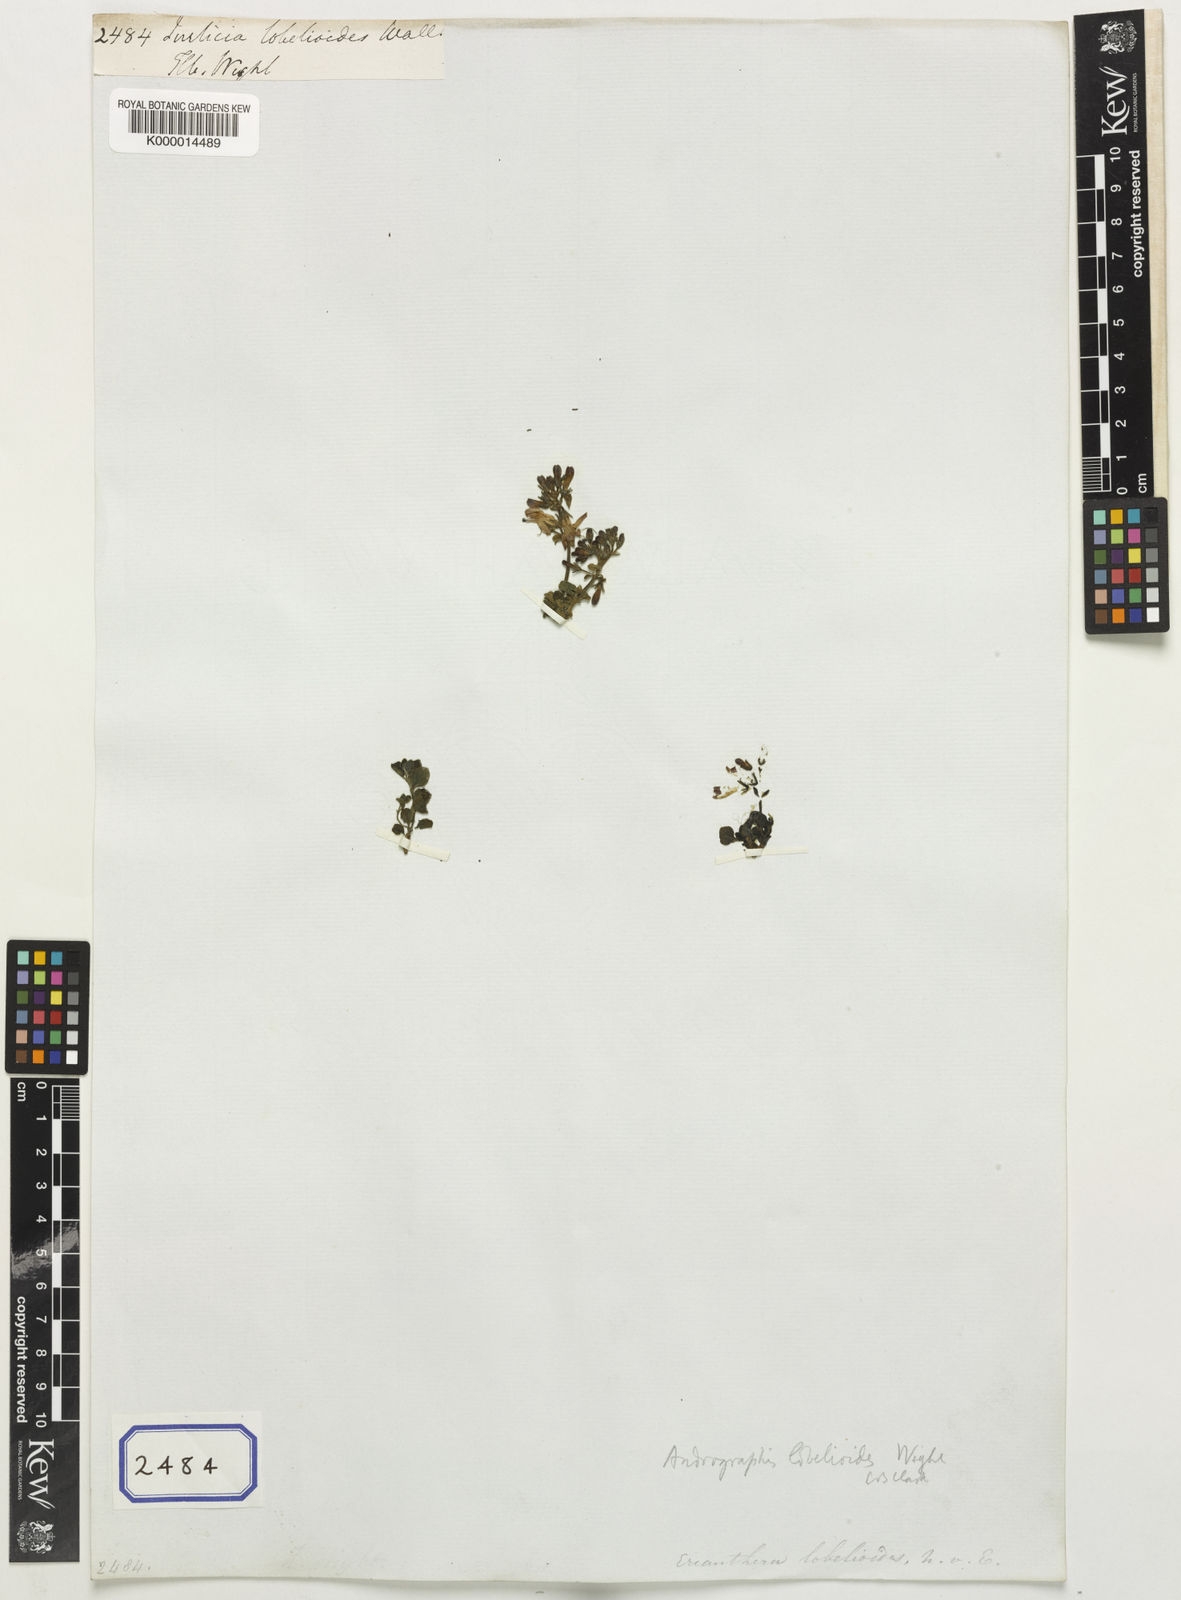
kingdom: Plantae
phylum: Tracheophyta
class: Magnoliopsida
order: Lamiales
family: Acanthaceae
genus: Andrographis
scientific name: Andrographis lobelioides
